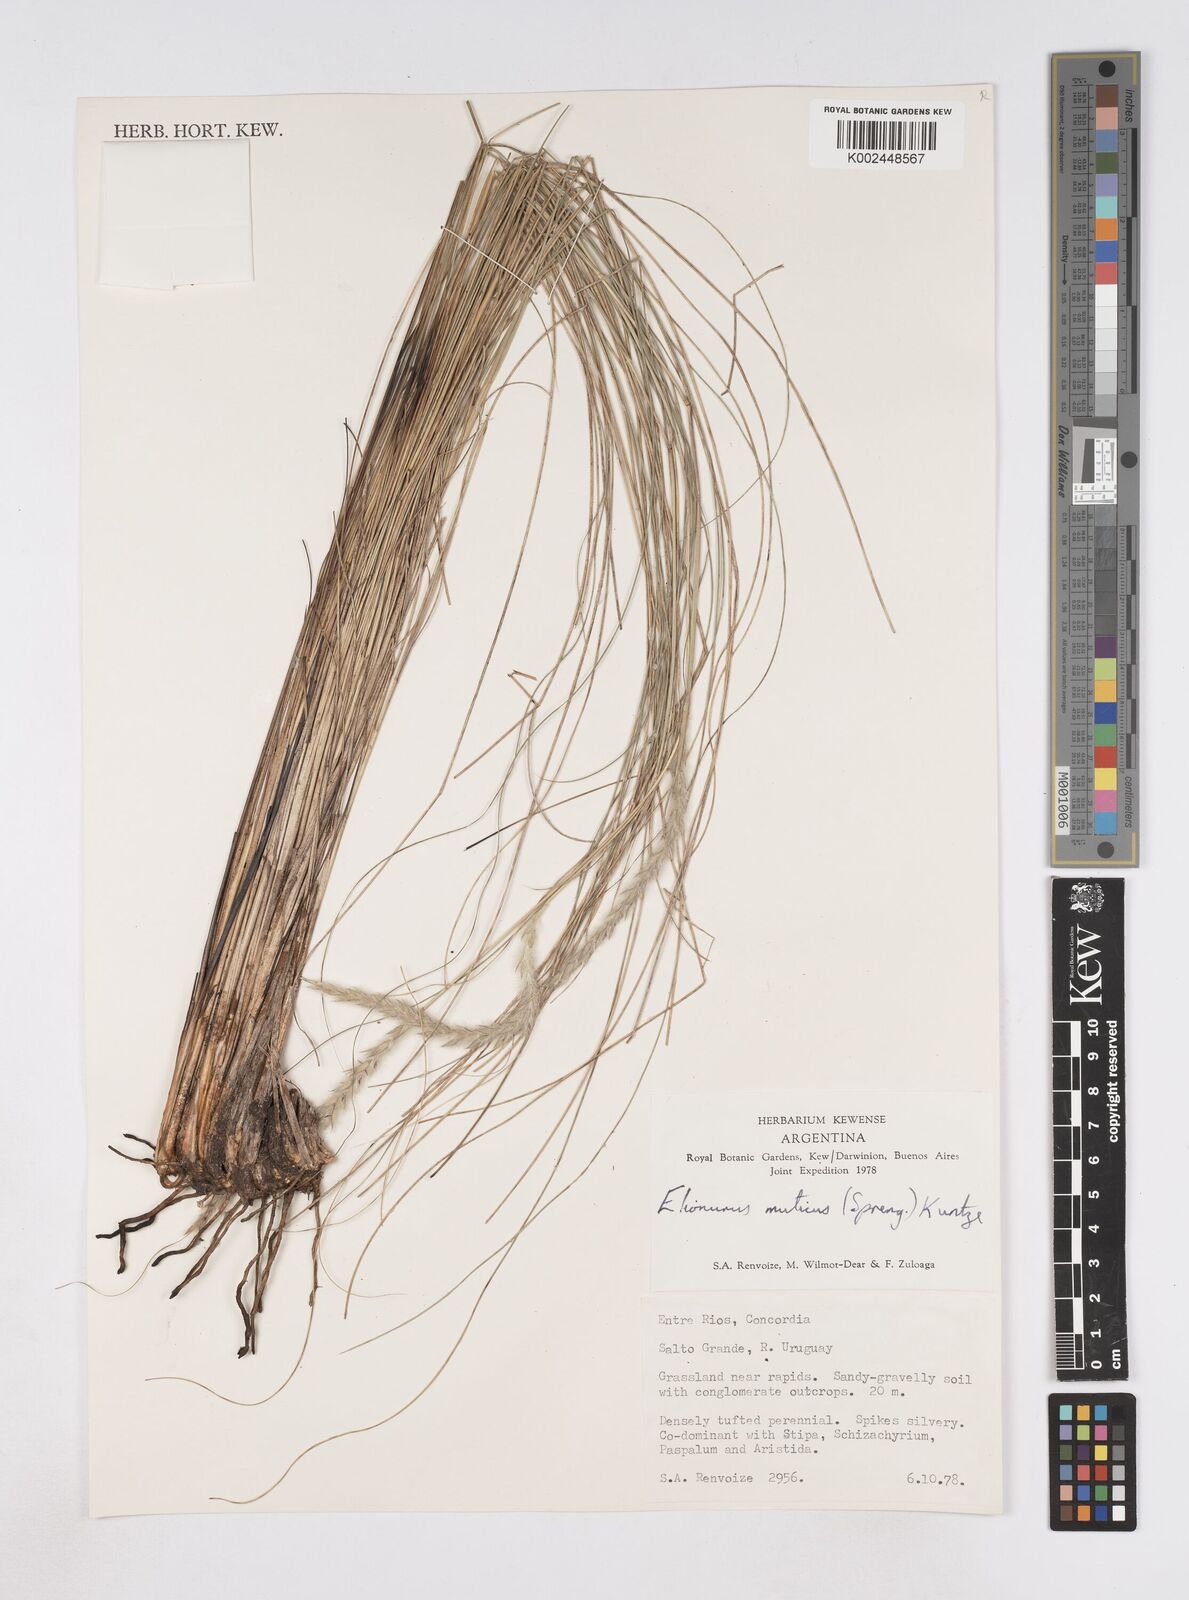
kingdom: Plantae
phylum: Tracheophyta
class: Liliopsida
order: Poales
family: Poaceae
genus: Elionurus
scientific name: Elionurus muticus
